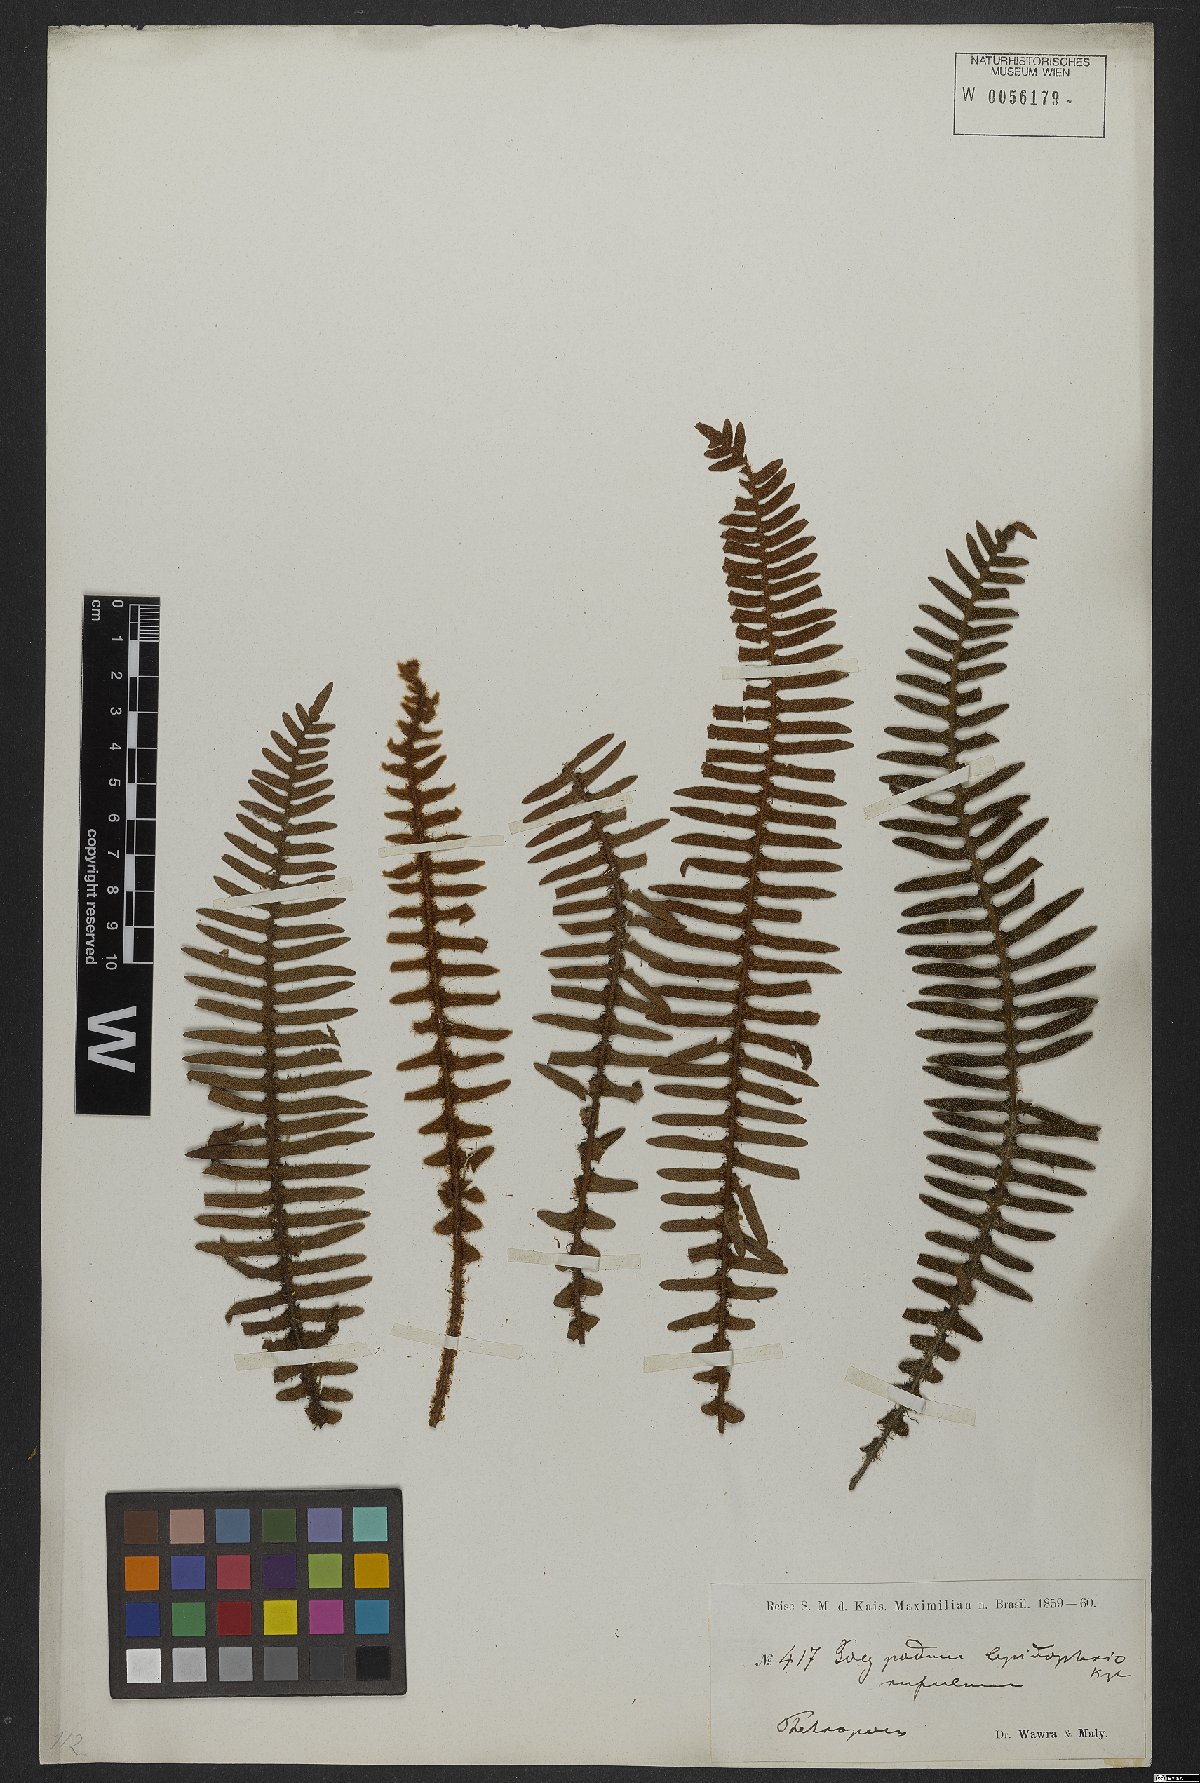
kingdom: Plantae
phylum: Tracheophyta
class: Polypodiopsida
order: Polypodiales
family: Polypodiaceae
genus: Pleopeltis
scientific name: Pleopeltis lepidopteris
